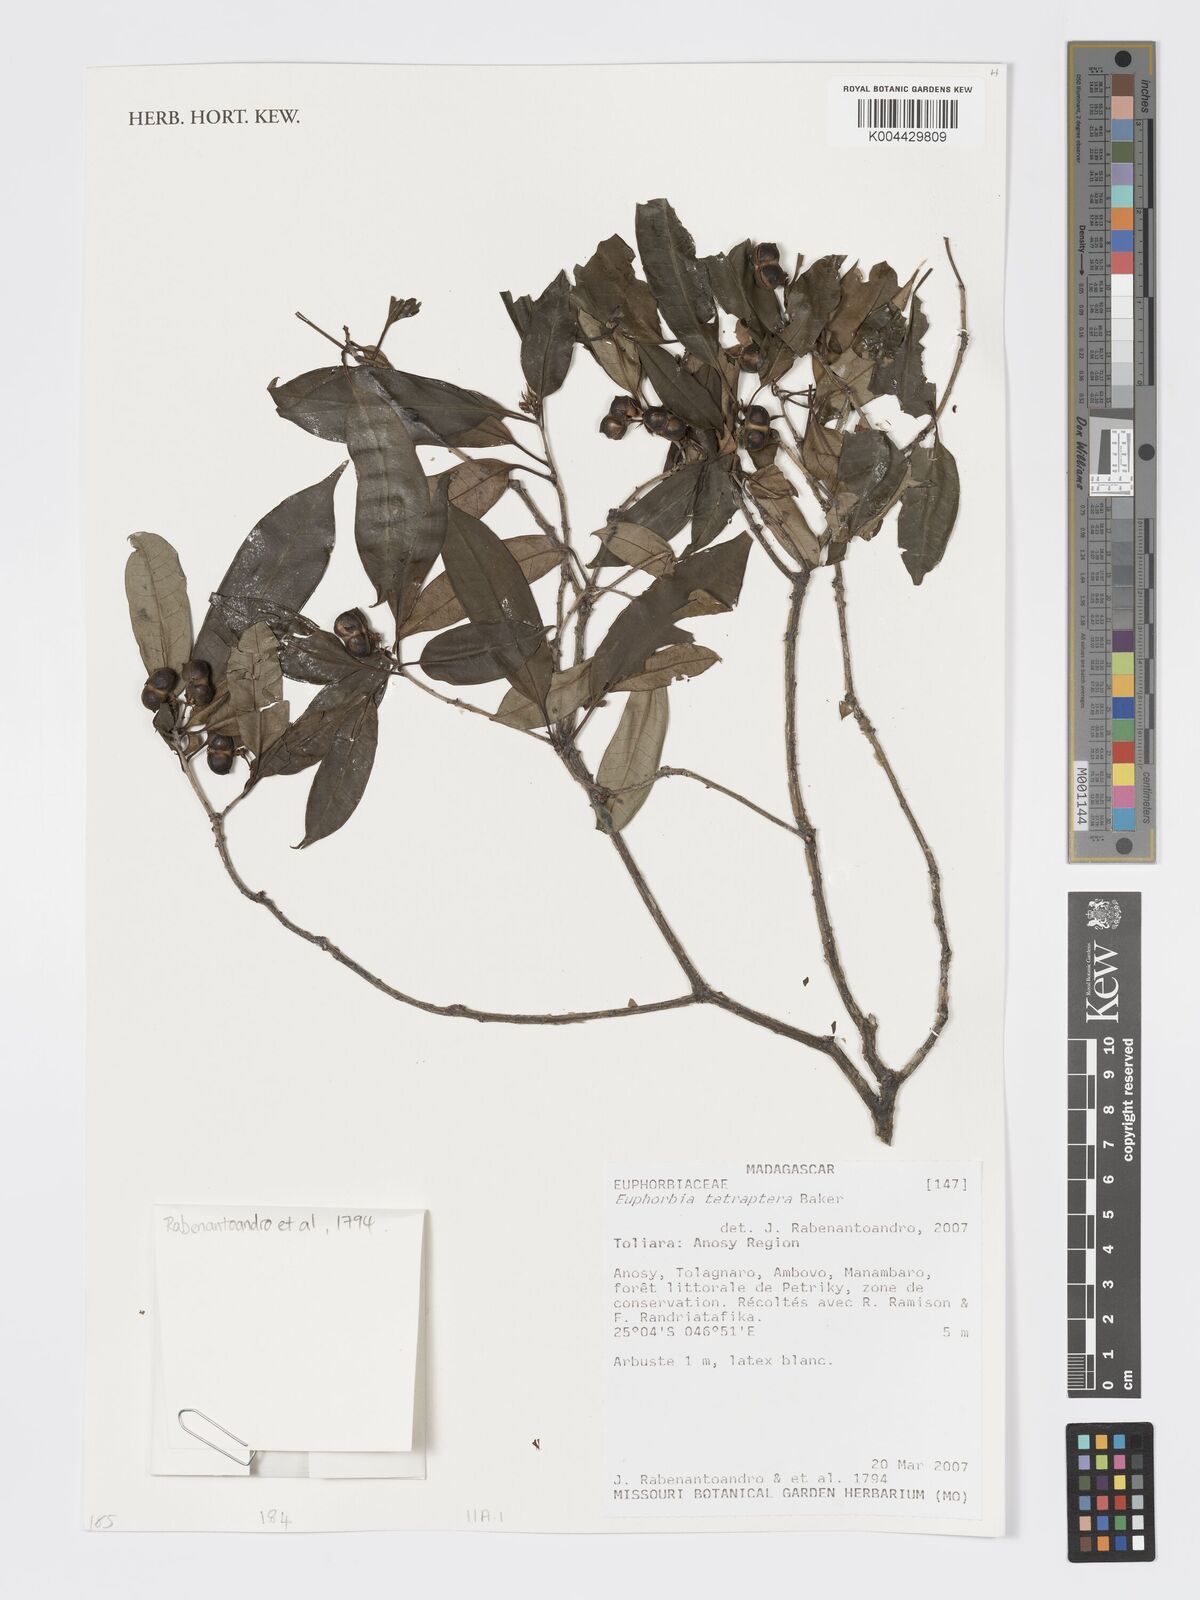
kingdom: Plantae
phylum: Tracheophyta
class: Magnoliopsida
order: Malpighiales
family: Euphorbiaceae
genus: Euphorbia
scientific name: Euphorbia tetraptera
